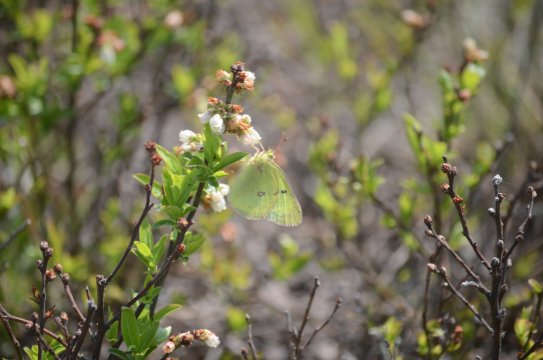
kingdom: Animalia
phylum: Arthropoda
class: Insecta
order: Lepidoptera
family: Pieridae
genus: Colias
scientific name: Colias philodice
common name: Clouded Sulphur
